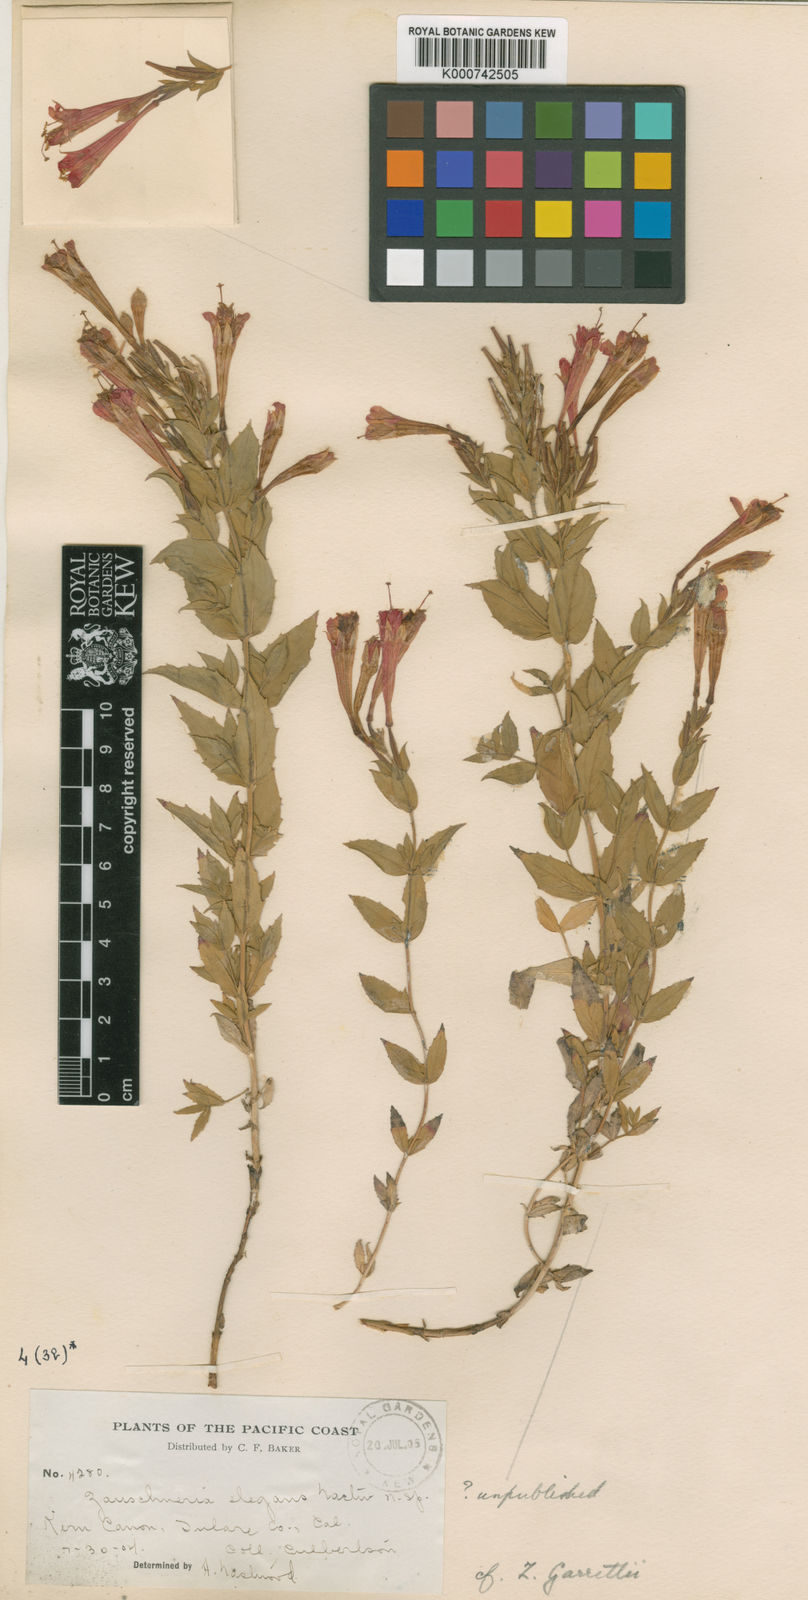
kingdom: Plantae
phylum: Tracheophyta
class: Magnoliopsida
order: Myrtales
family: Onagraceae
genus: Chamaenerion
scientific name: Chamaenerion latifolium
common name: Dwarf fireweed
